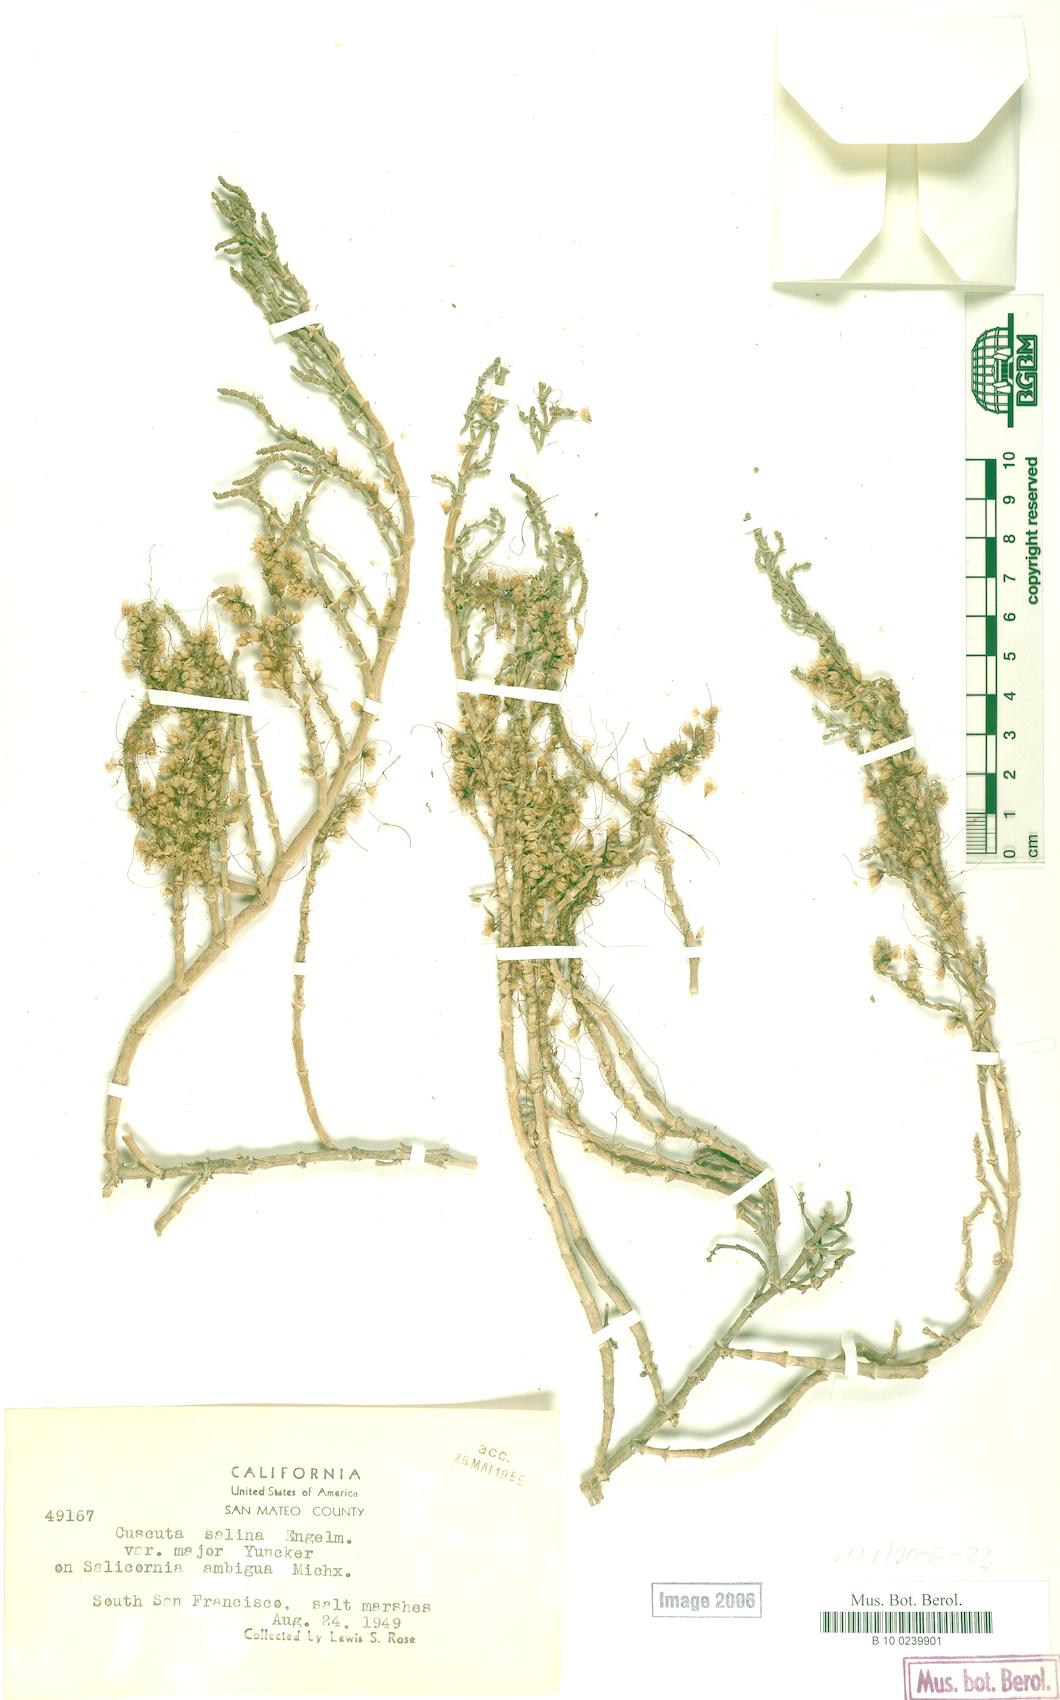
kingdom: Plantae
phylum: Tracheophyta
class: Magnoliopsida
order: Solanales
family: Convolvulaceae
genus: Cuscuta
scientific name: Cuscuta salina
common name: Goldenthread
